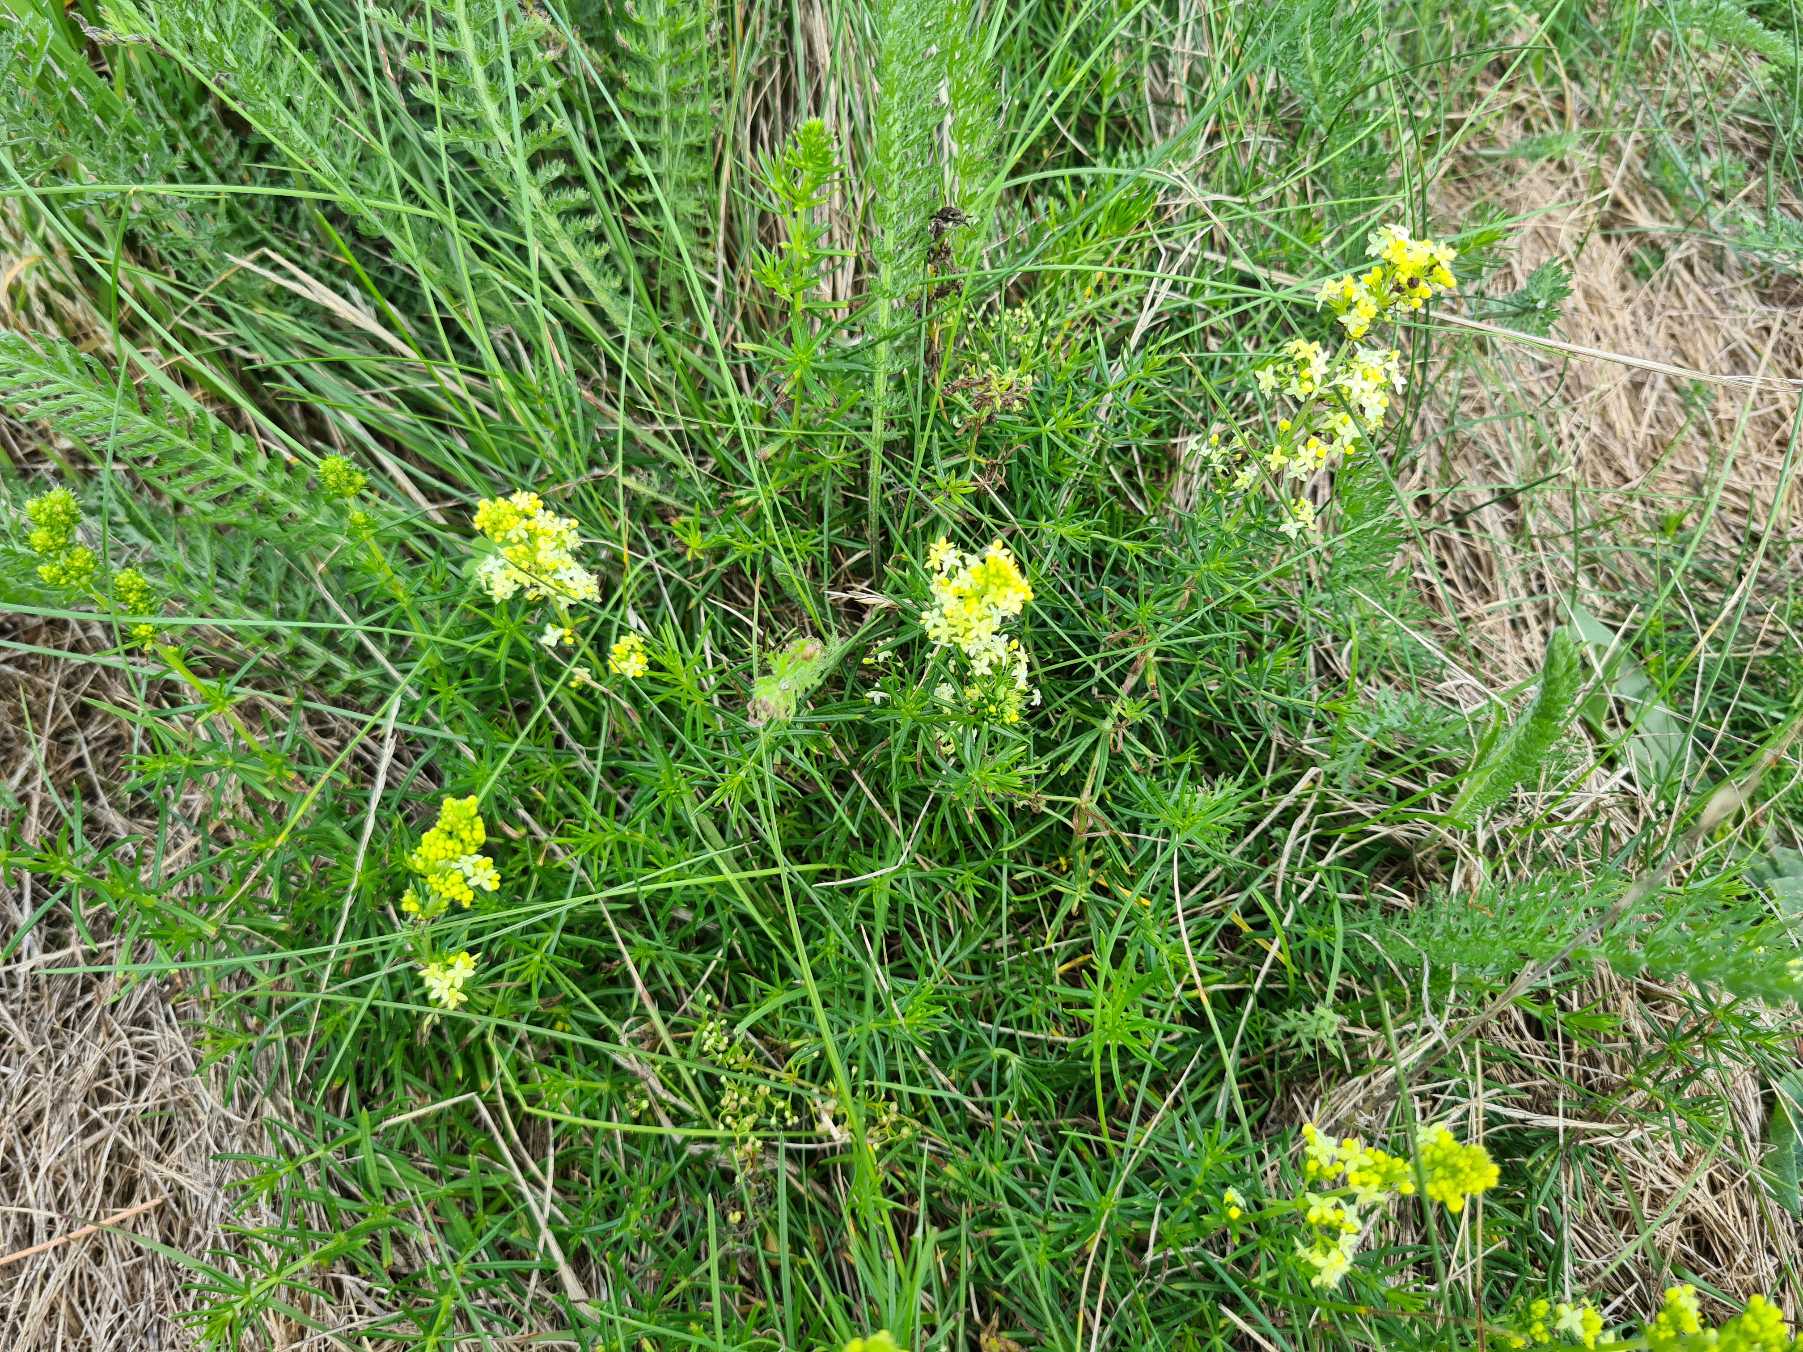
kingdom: Plantae
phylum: Tracheophyta
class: Magnoliopsida
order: Gentianales
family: Rubiaceae
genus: Galium
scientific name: Galium
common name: Hvidgul snerre
